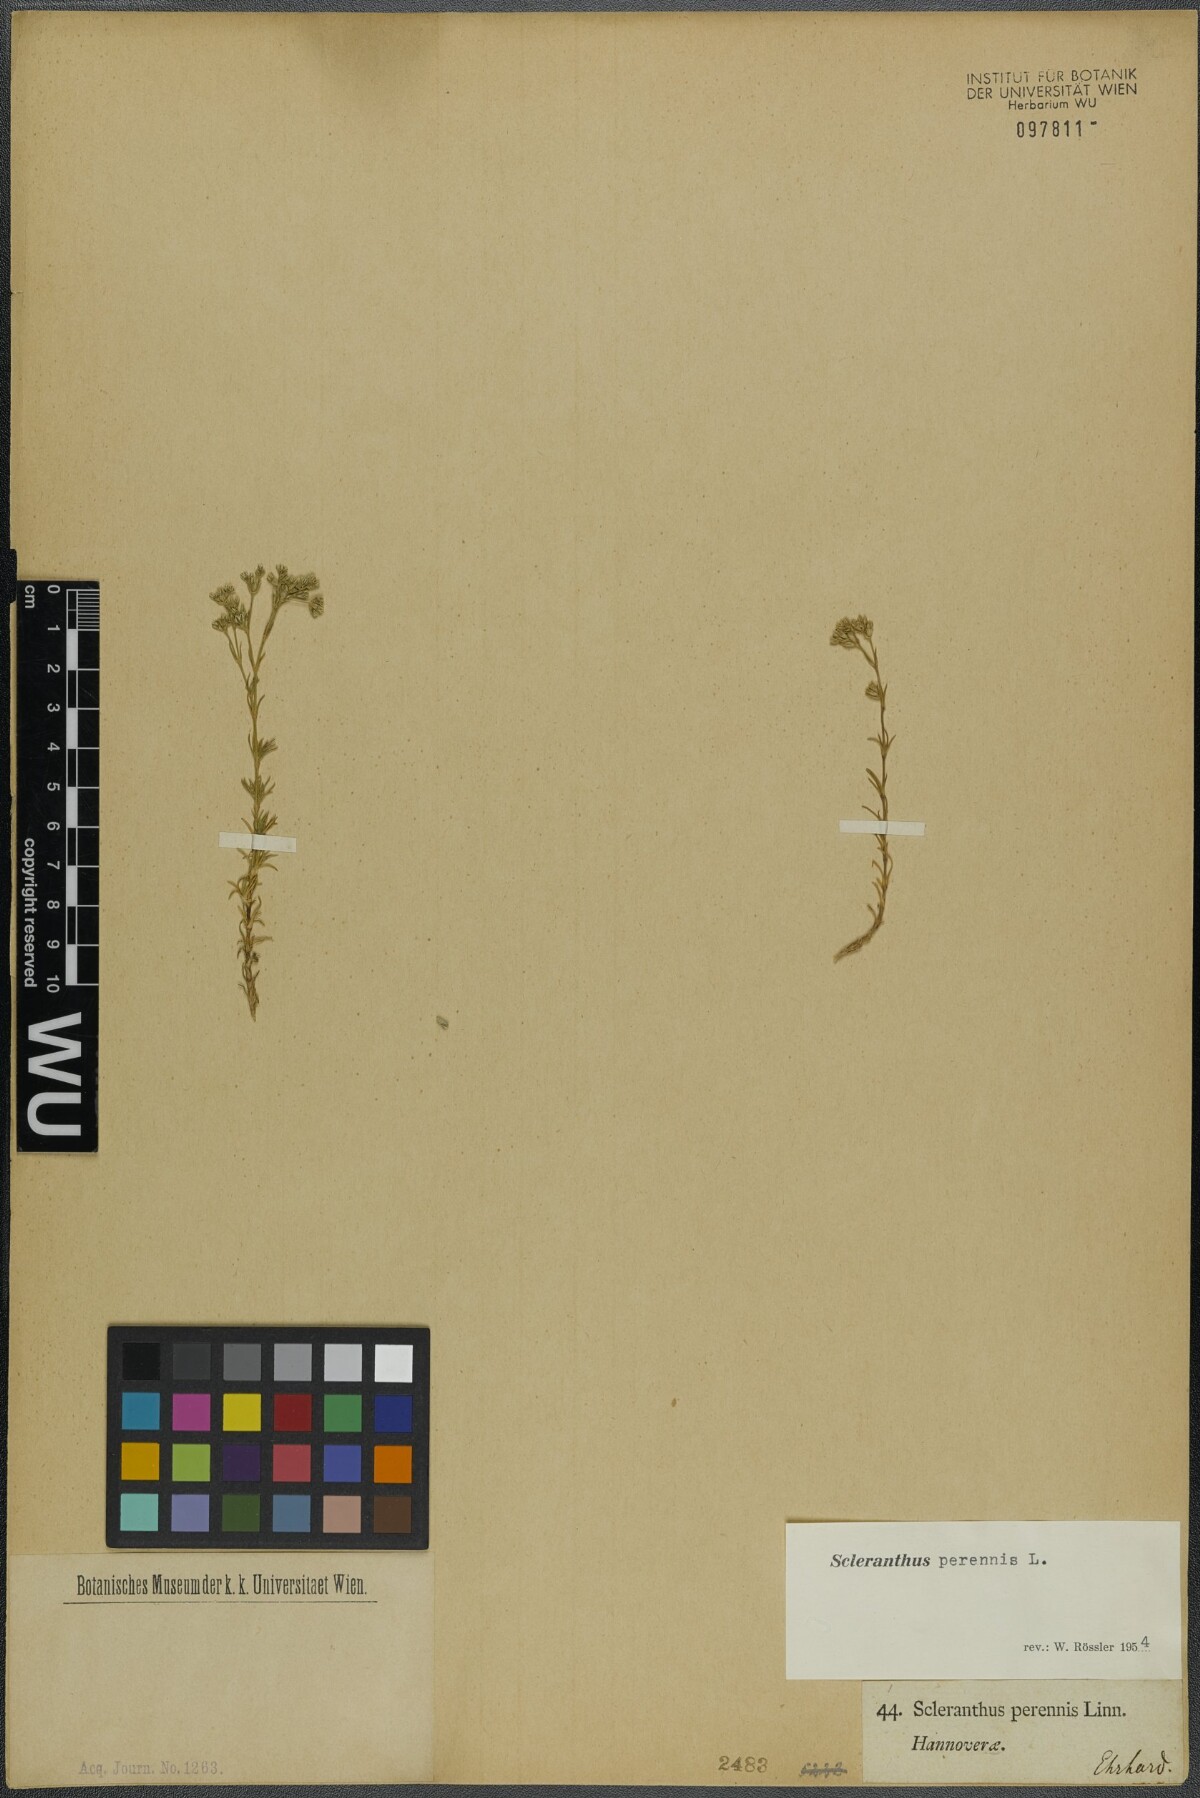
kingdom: Plantae
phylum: Tracheophyta
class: Magnoliopsida
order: Caryophyllales
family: Caryophyllaceae
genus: Scleranthus
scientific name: Scleranthus perennis
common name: Perennial knawel
